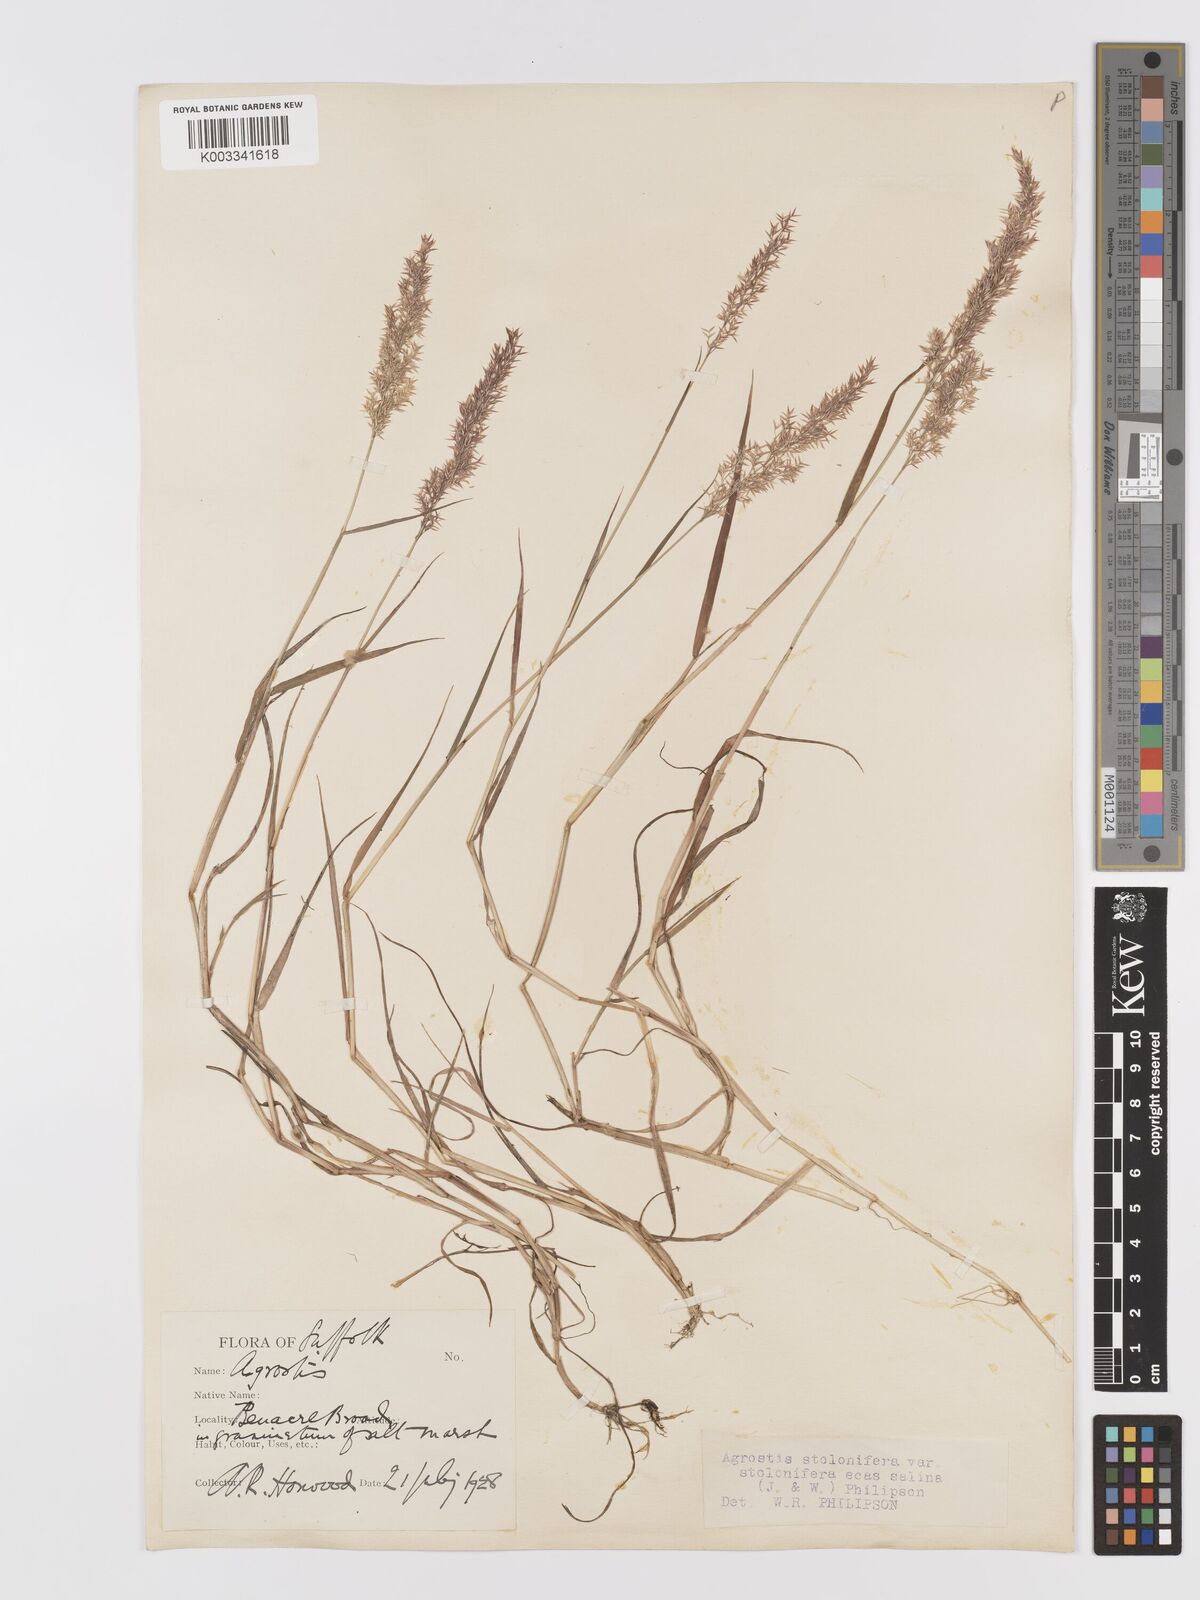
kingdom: Plantae
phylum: Tracheophyta
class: Liliopsida
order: Poales
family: Poaceae
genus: Agrostis
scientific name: Agrostis stolonifera
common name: Creeping bentgrass
